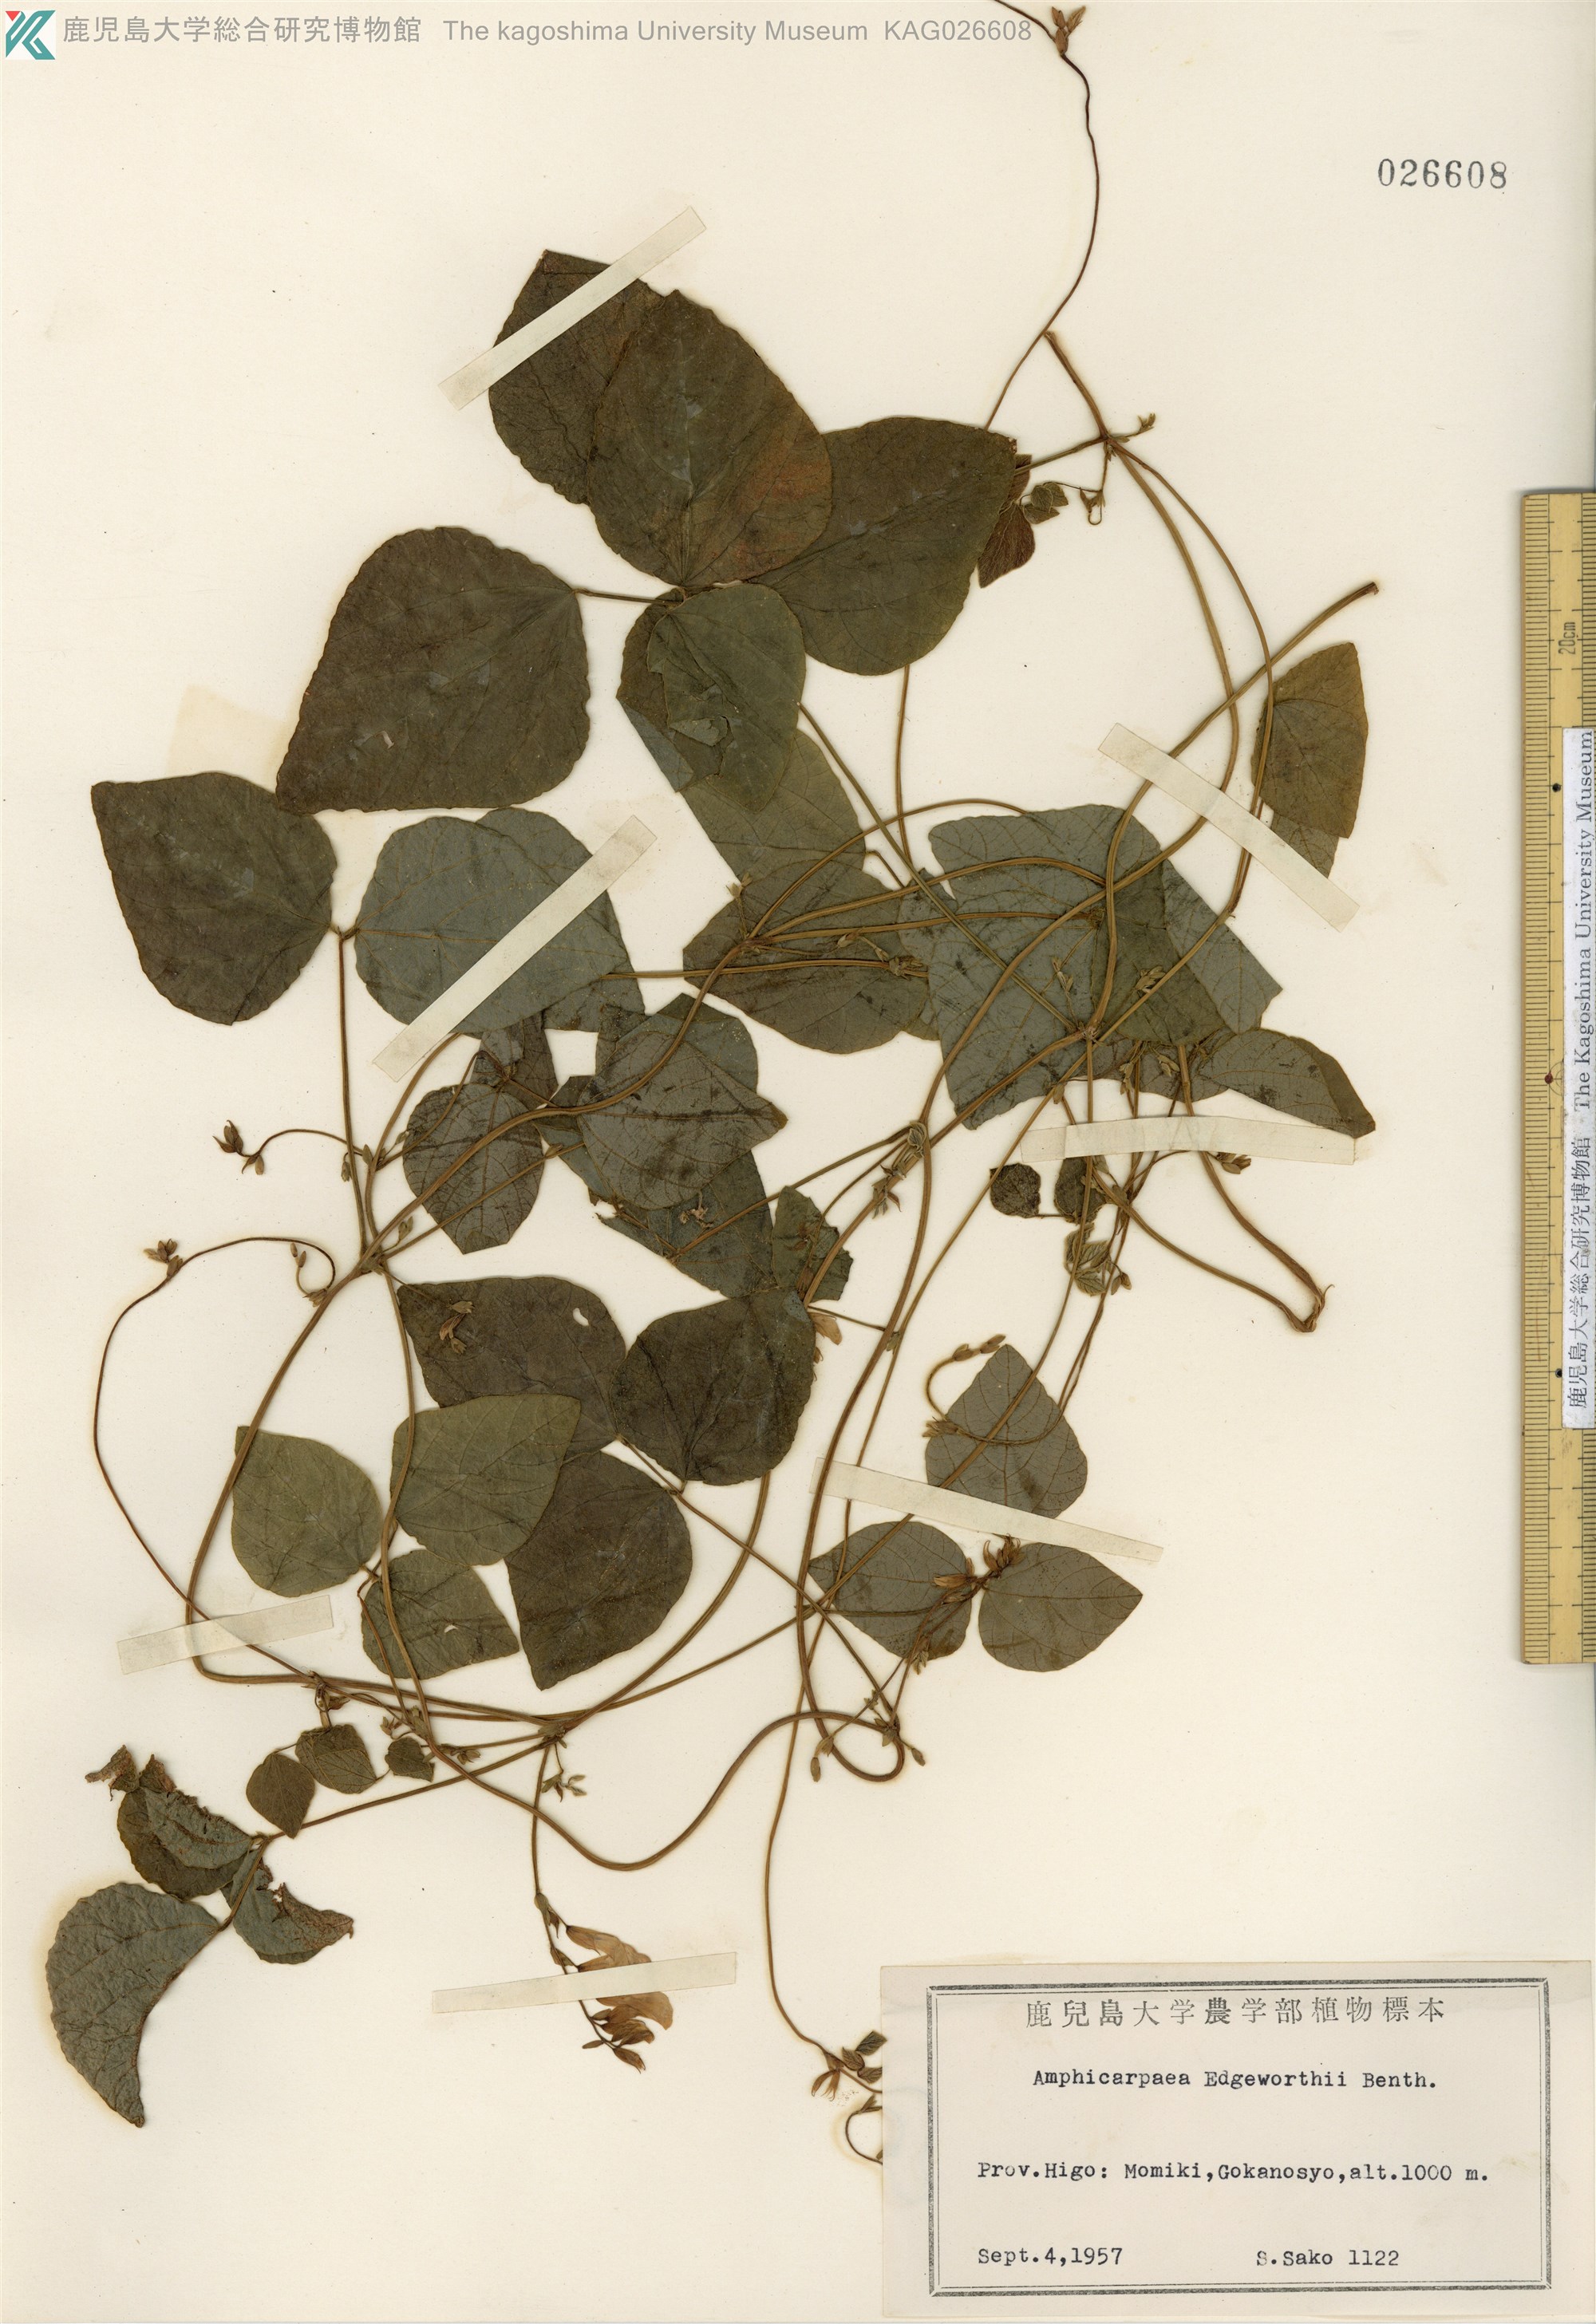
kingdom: Plantae
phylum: Tracheophyta
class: Magnoliopsida
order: Fabales
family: Fabaceae
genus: Amphicarpaea
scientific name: Amphicarpaea edgeworthii
